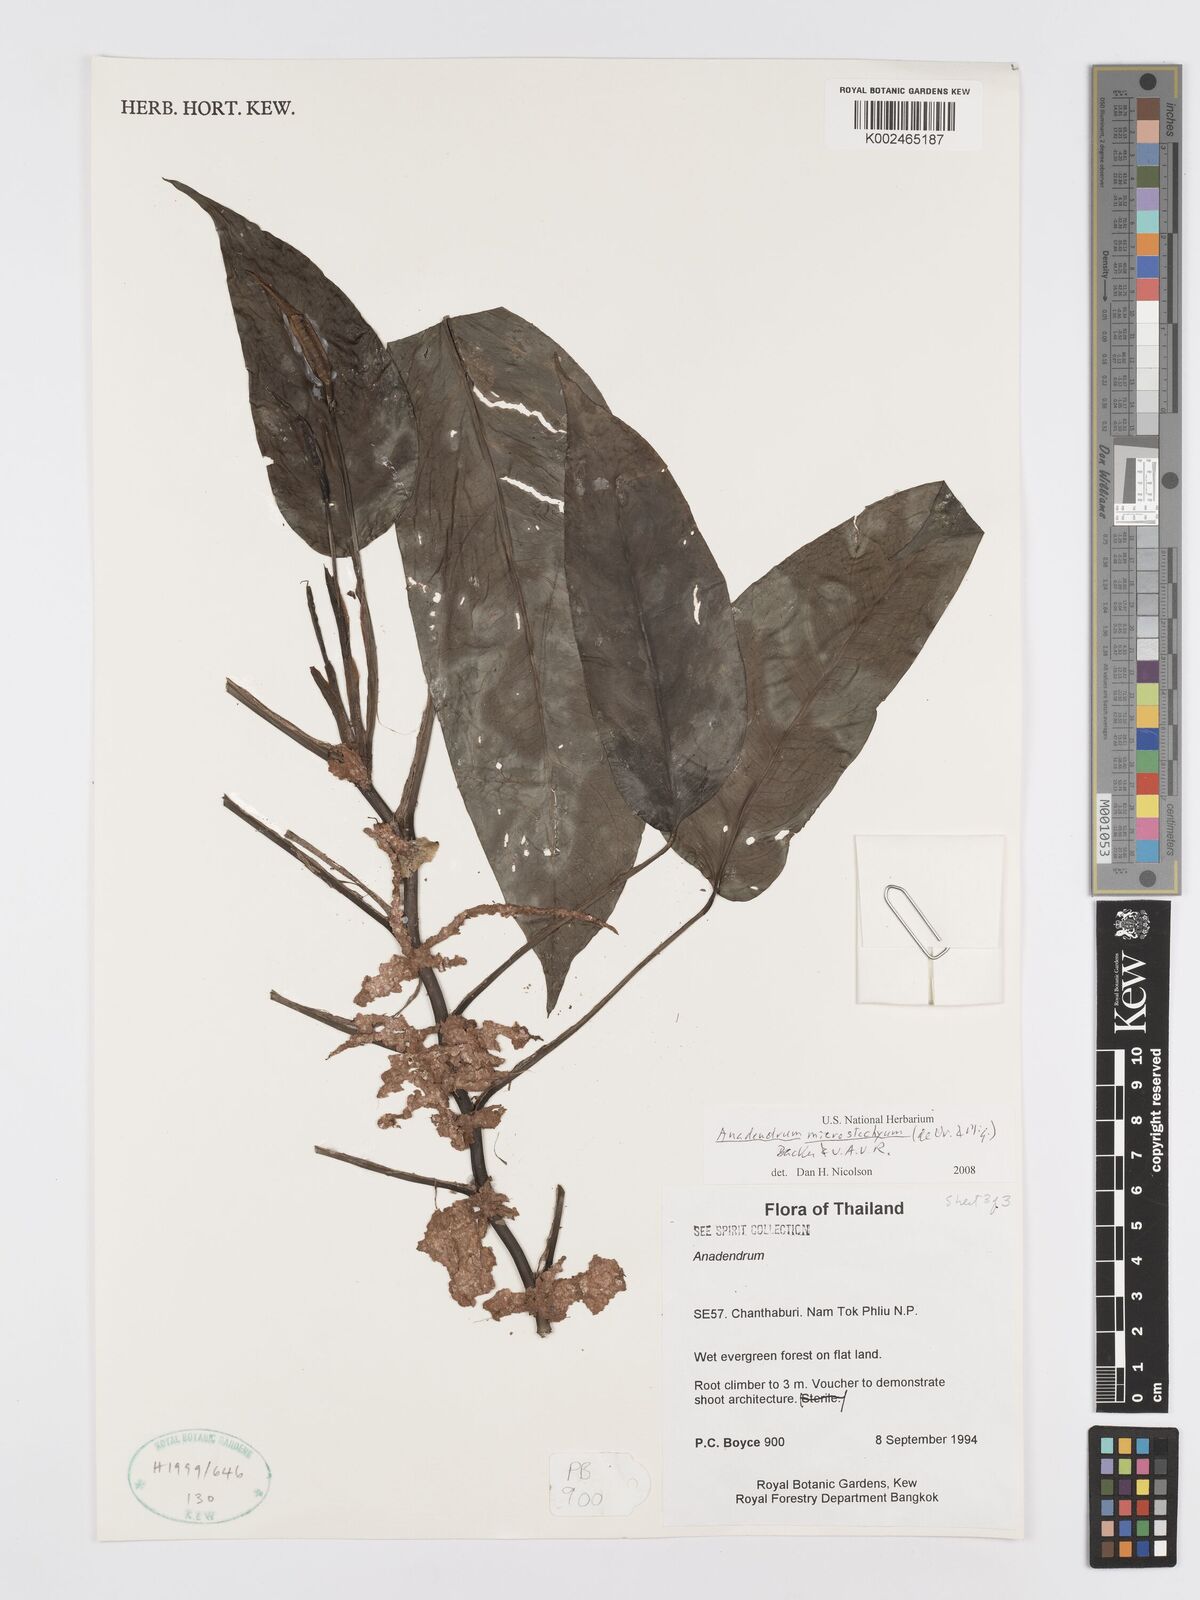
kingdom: Plantae
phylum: Tracheophyta
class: Liliopsida
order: Alismatales
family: Araceae
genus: Anadendrum
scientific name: Anadendrum microstachyum
